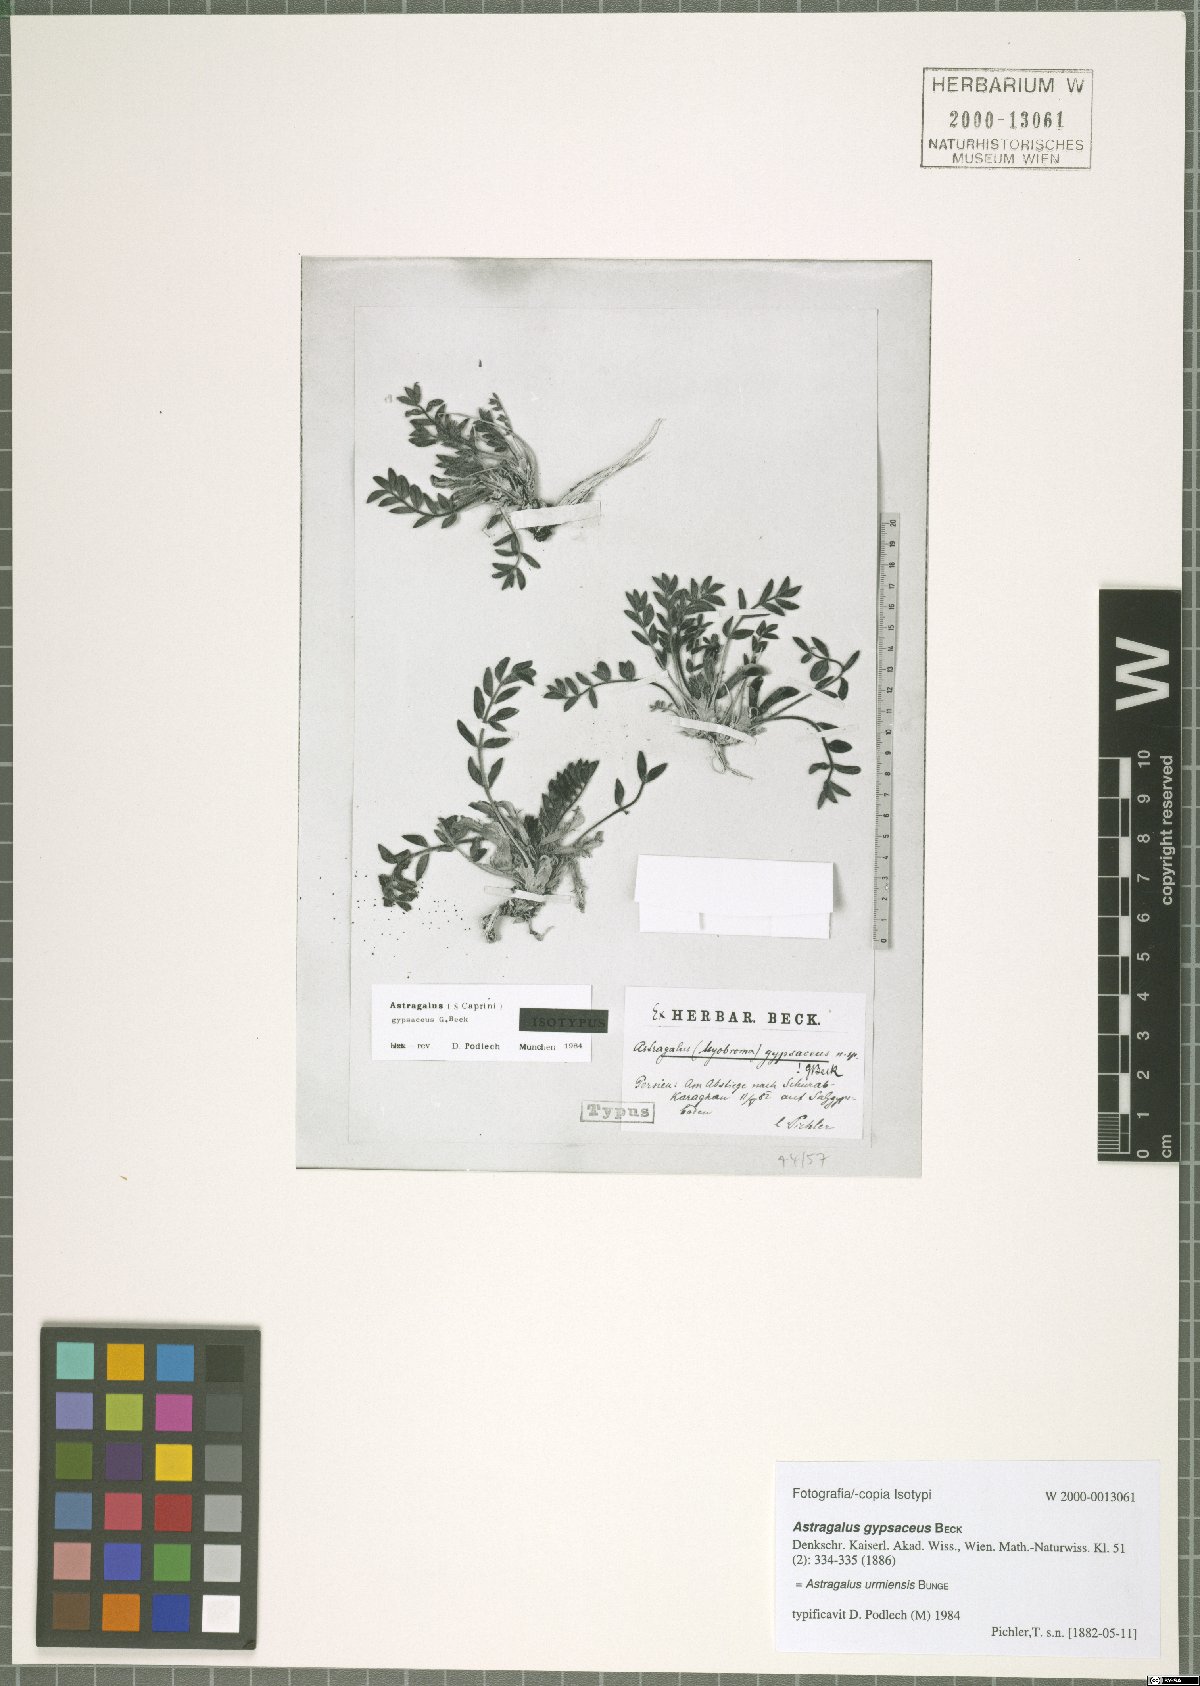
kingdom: Plantae
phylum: Tracheophyta
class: Magnoliopsida
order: Fabales
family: Fabaceae
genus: Astragalus
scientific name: Astragalus urmiensis
